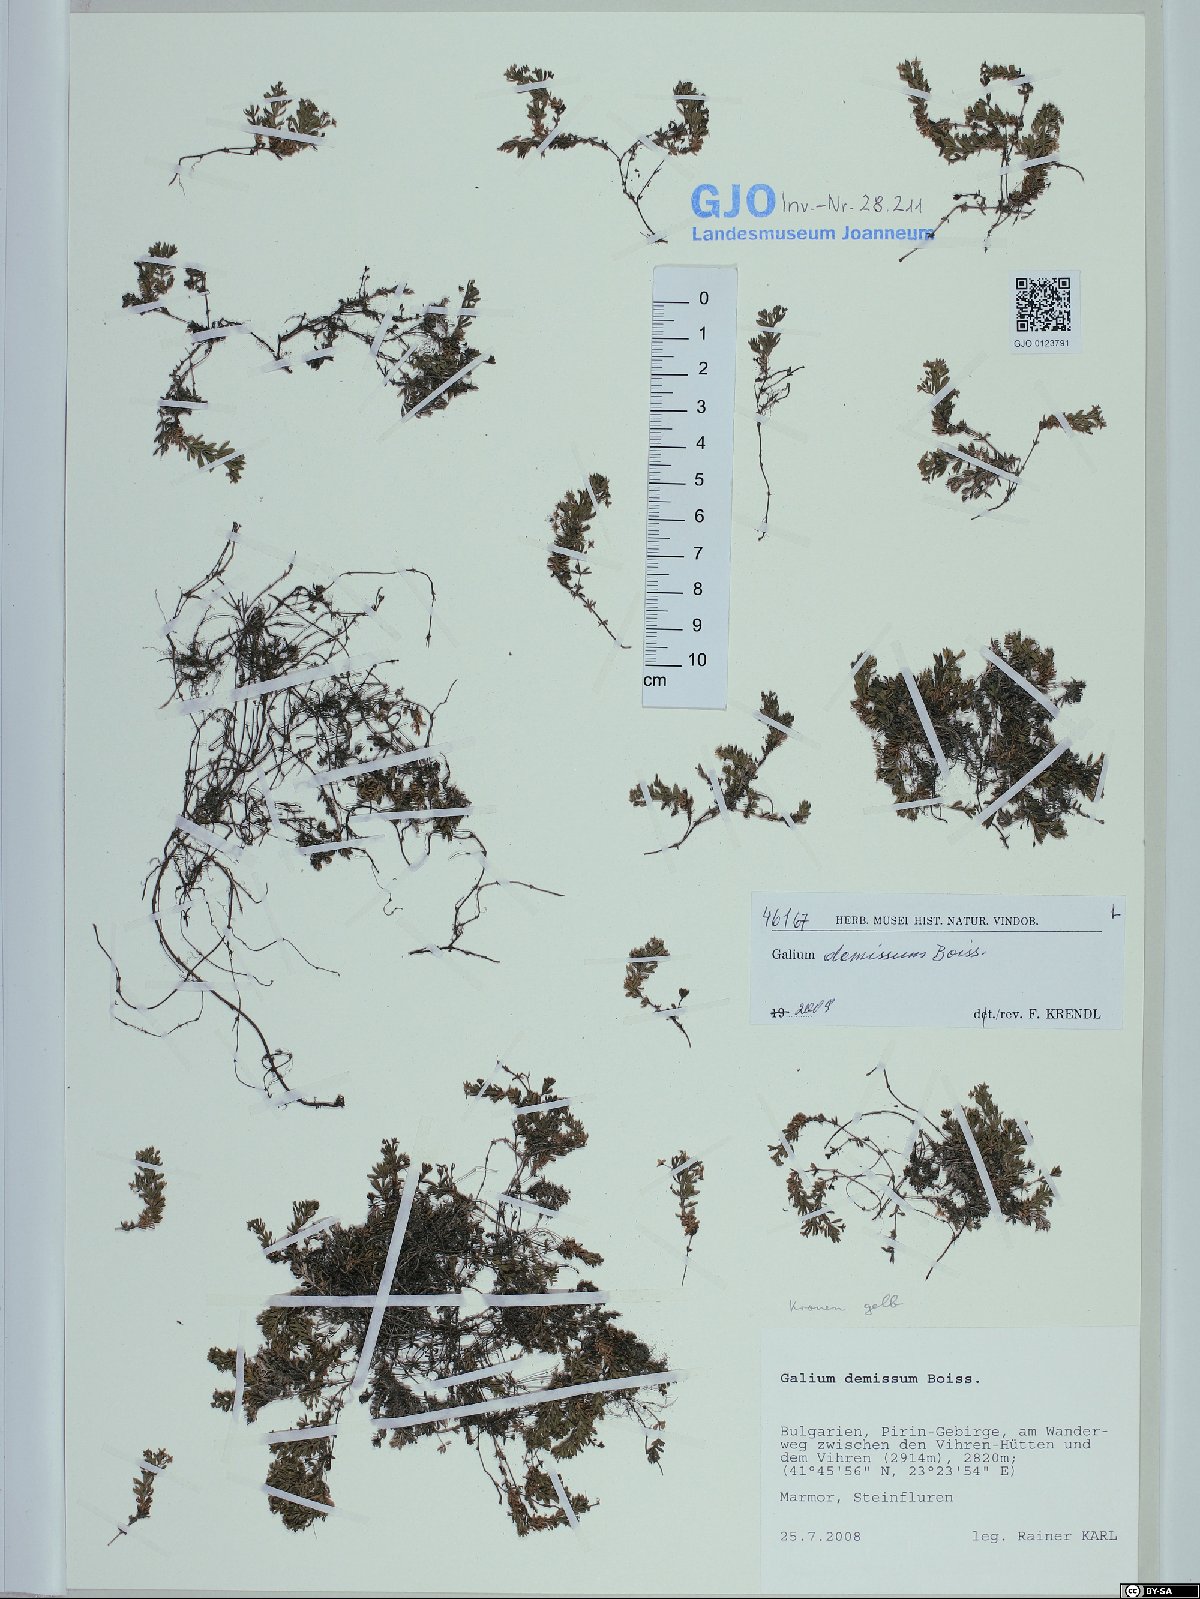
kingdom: Plantae
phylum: Tracheophyta
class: Magnoliopsida
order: Gentianales
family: Rubiaceae
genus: Galium
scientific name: Galium demissum
